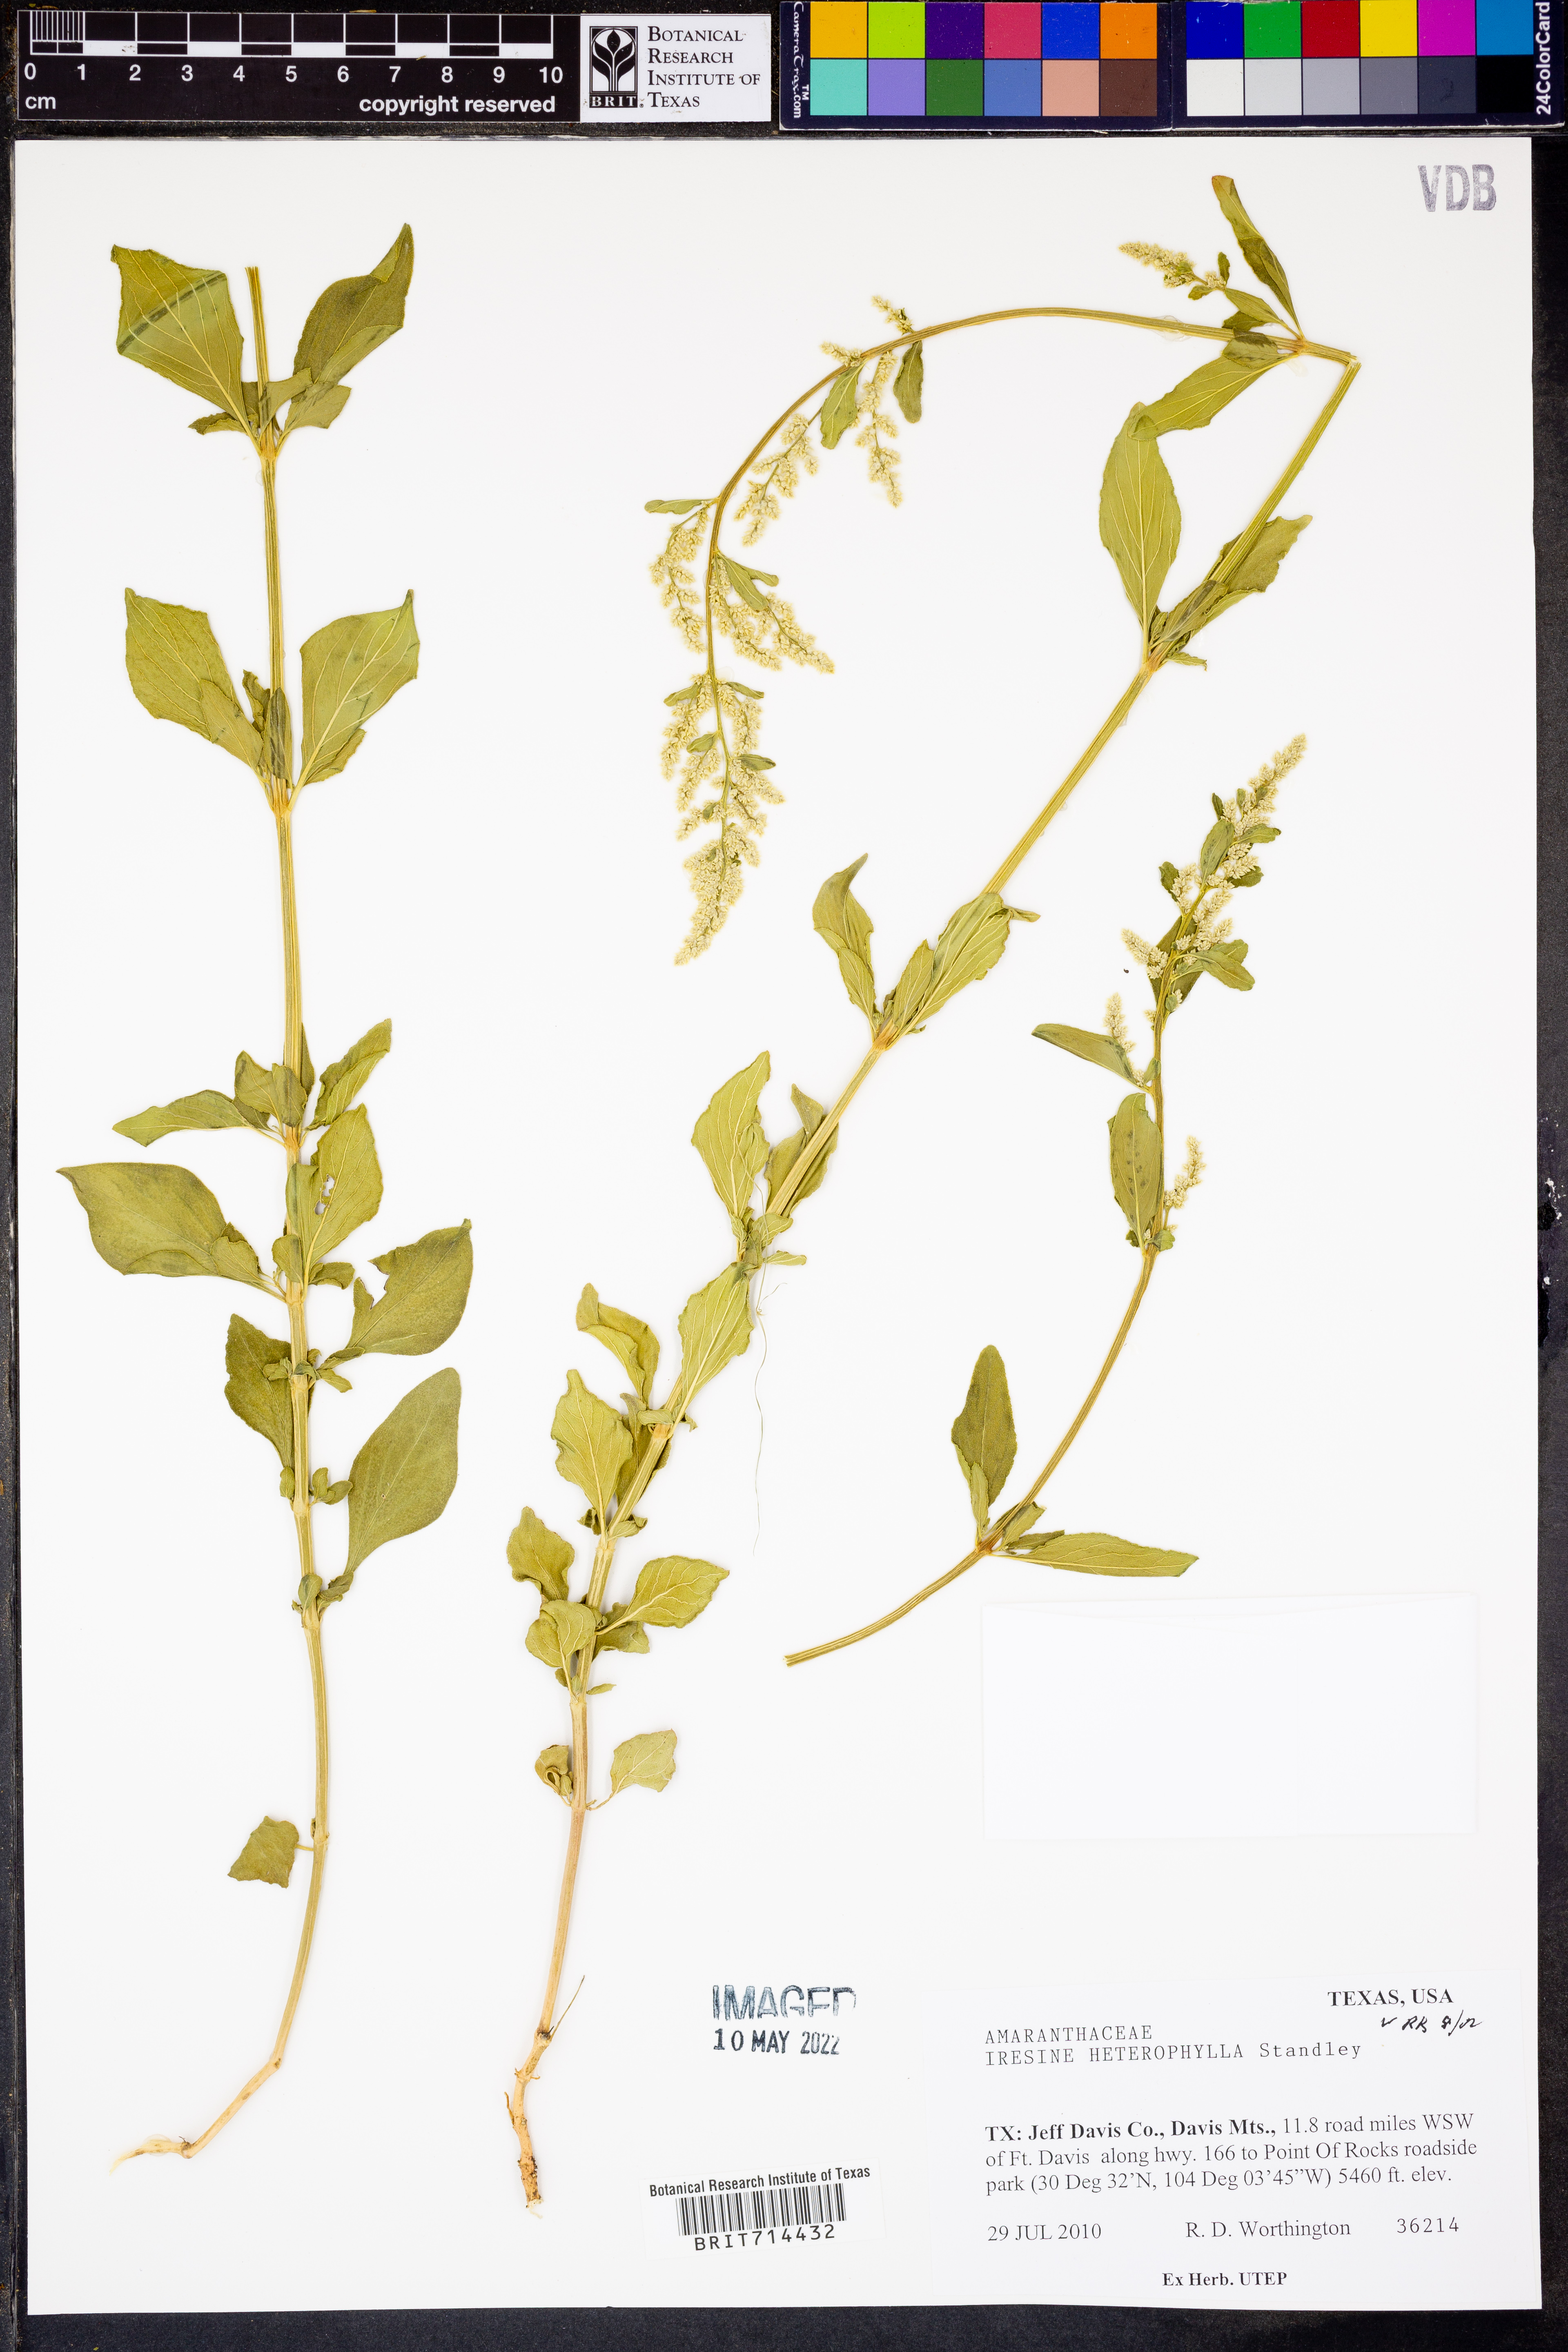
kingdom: Plantae
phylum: Tracheophyta
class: Magnoliopsida
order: Caryophyllales
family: Amaranthaceae
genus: Iresine
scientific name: Iresine heterophylla
